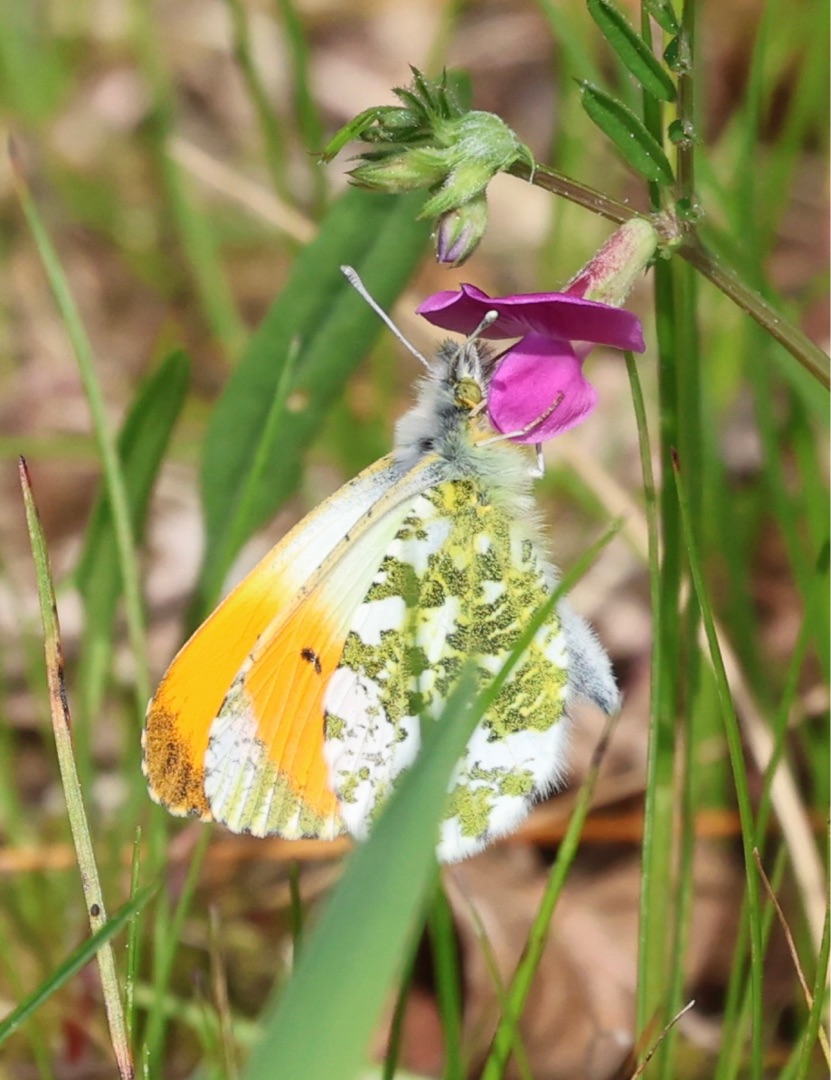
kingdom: Animalia
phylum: Arthropoda
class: Insecta
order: Lepidoptera
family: Pieridae
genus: Anthocharis
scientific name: Anthocharis cardamines
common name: Aurora
